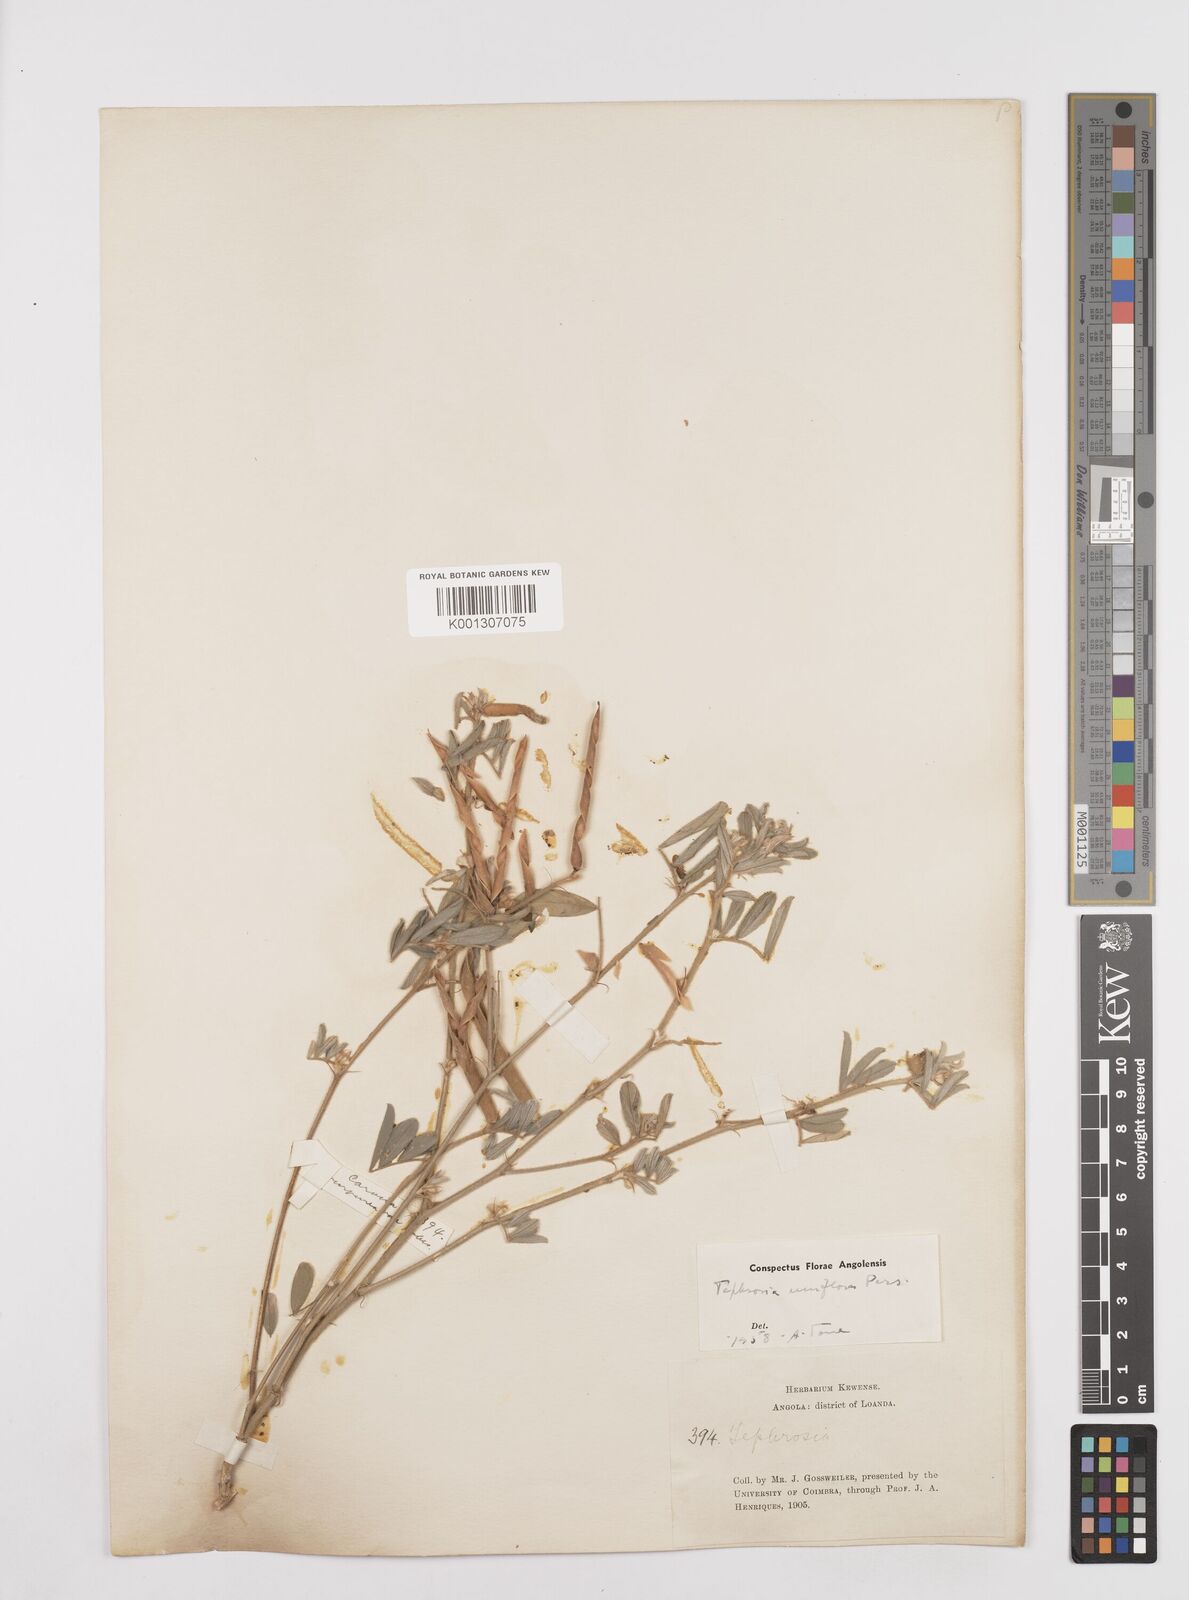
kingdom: Plantae
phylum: Tracheophyta
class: Magnoliopsida
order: Fabales
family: Fabaceae
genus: Tephrosia
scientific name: Tephrosia uniflora
